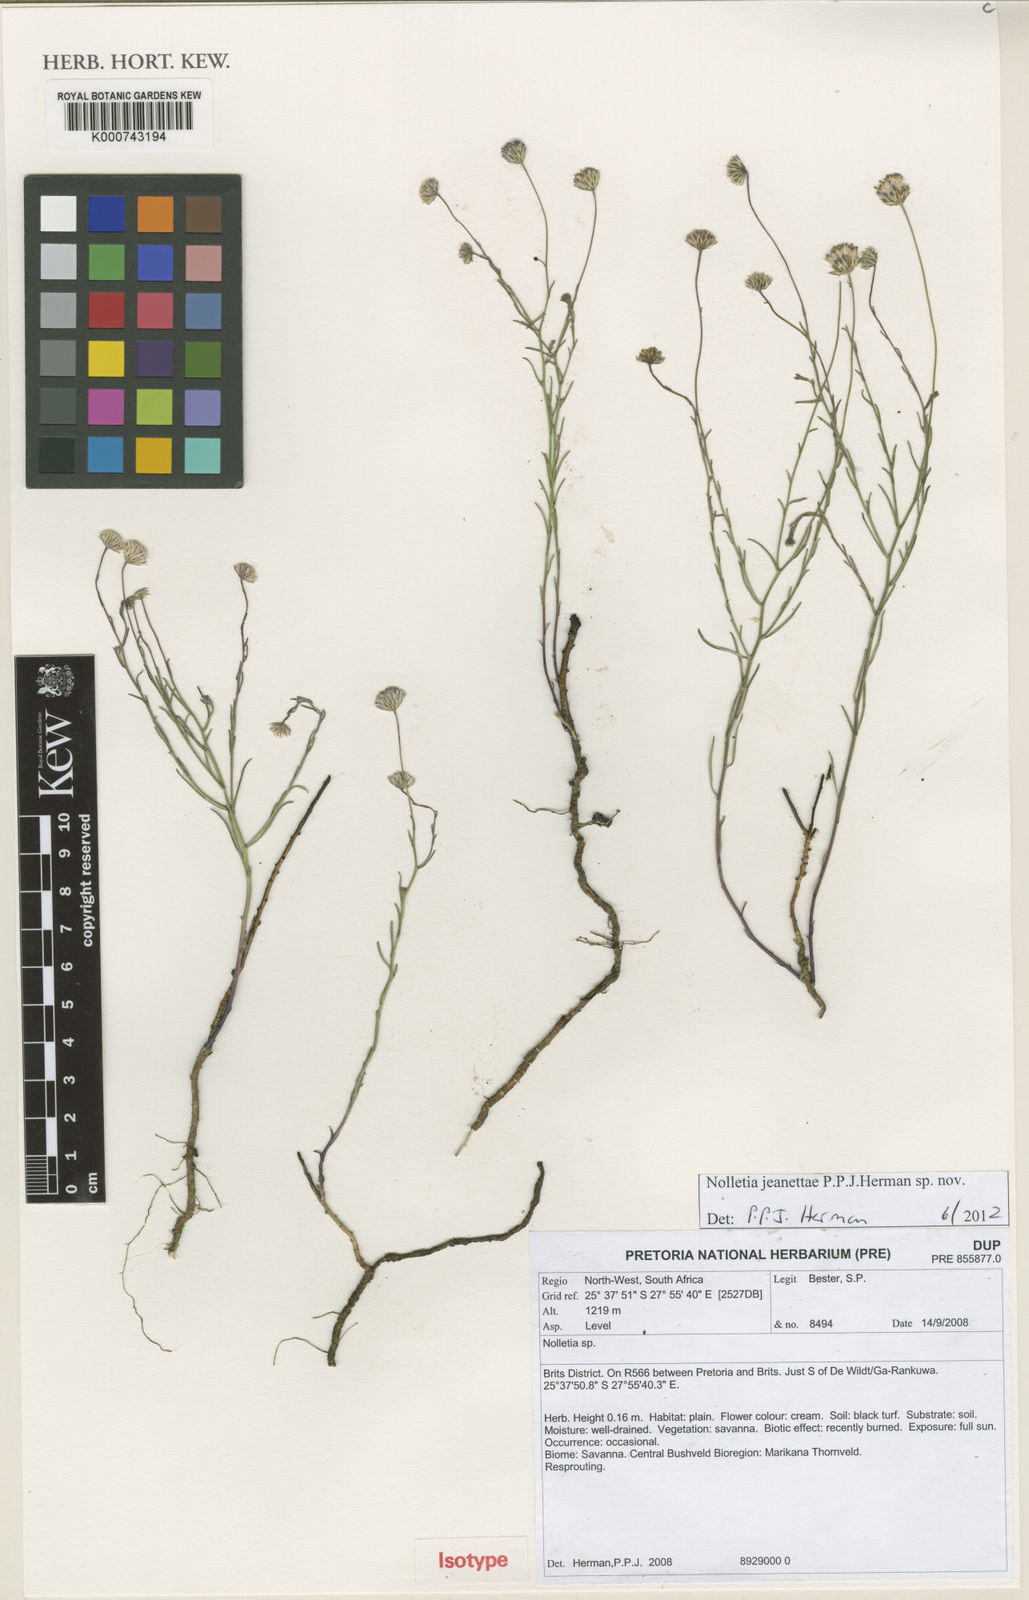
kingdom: Plantae
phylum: Tracheophyta
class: Magnoliopsida
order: Asterales
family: Asteraceae
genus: Nolletia
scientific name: Nolletia jeanettae
